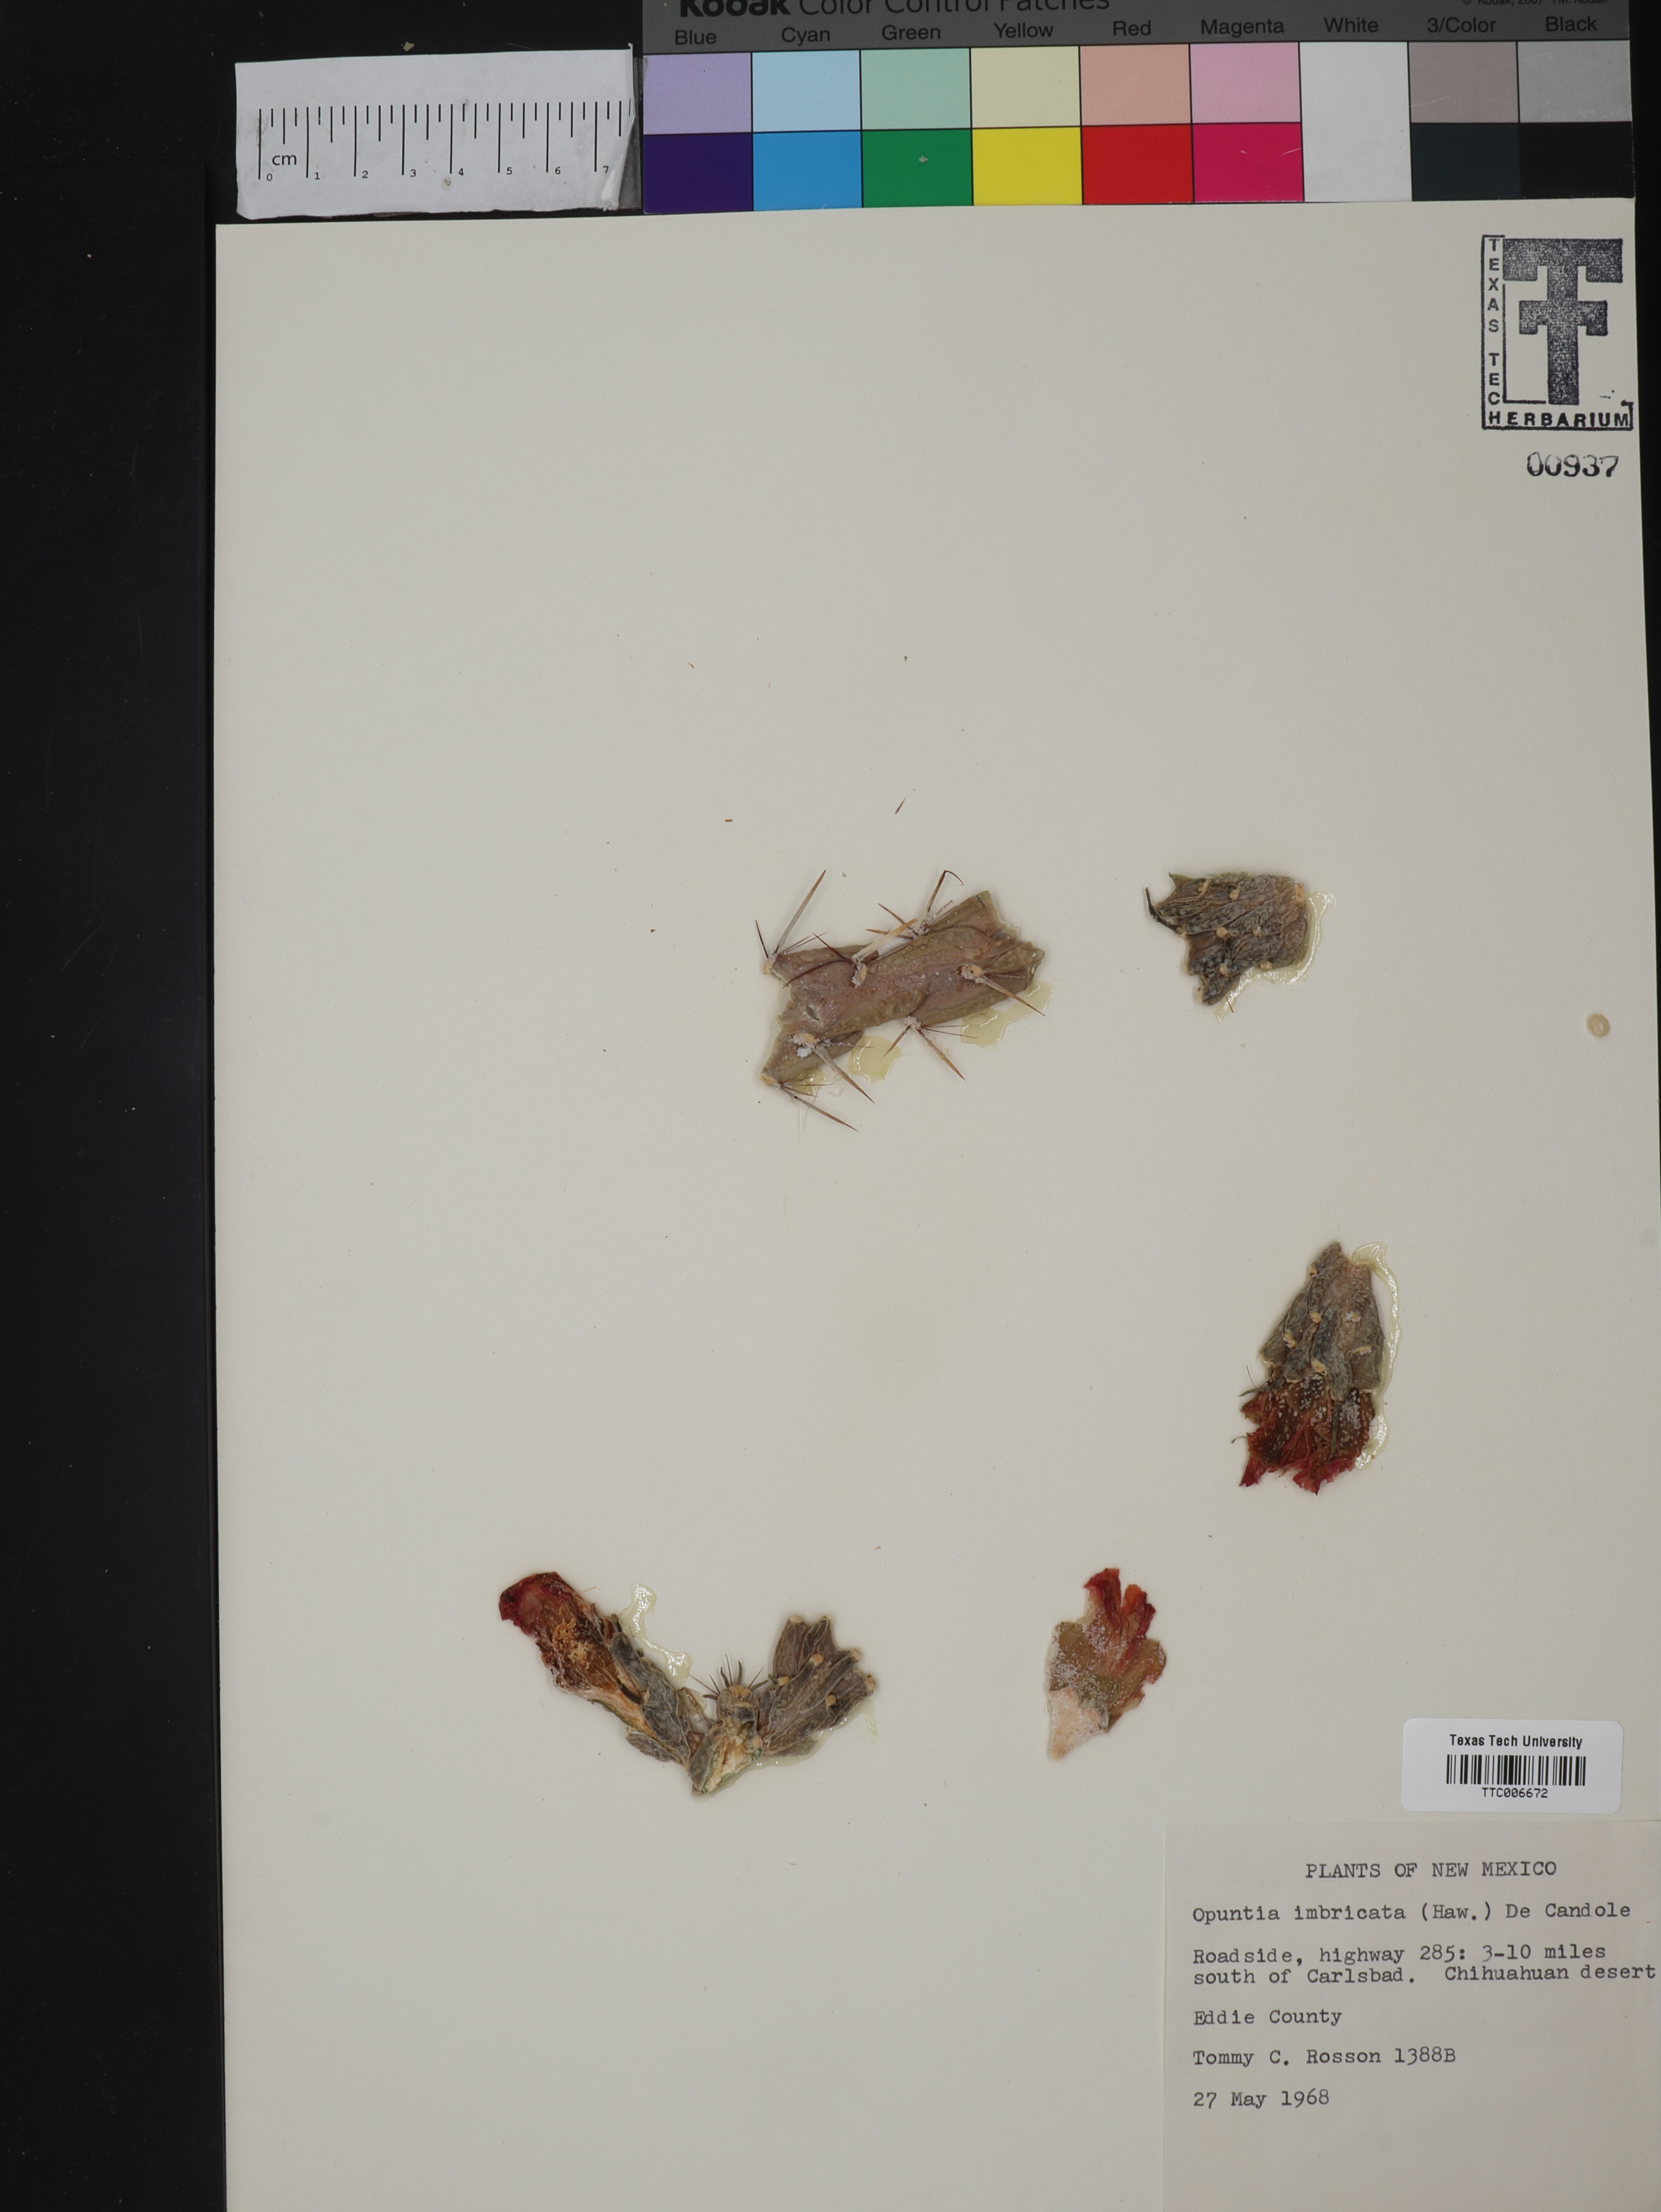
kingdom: Plantae
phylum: Tracheophyta
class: Magnoliopsida
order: Caryophyllales
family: Cactaceae
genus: Cylindropuntia
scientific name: Cylindropuntia imbricata
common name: Candelabrum cactus
